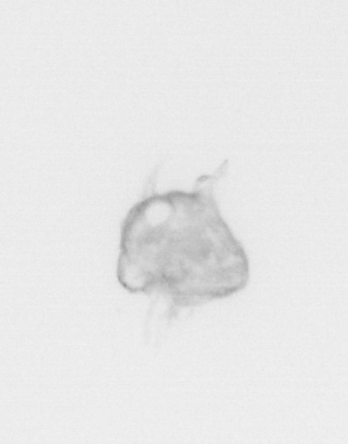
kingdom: Animalia
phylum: Arthropoda
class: Malacostraca
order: Decapoda
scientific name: Decapoda
